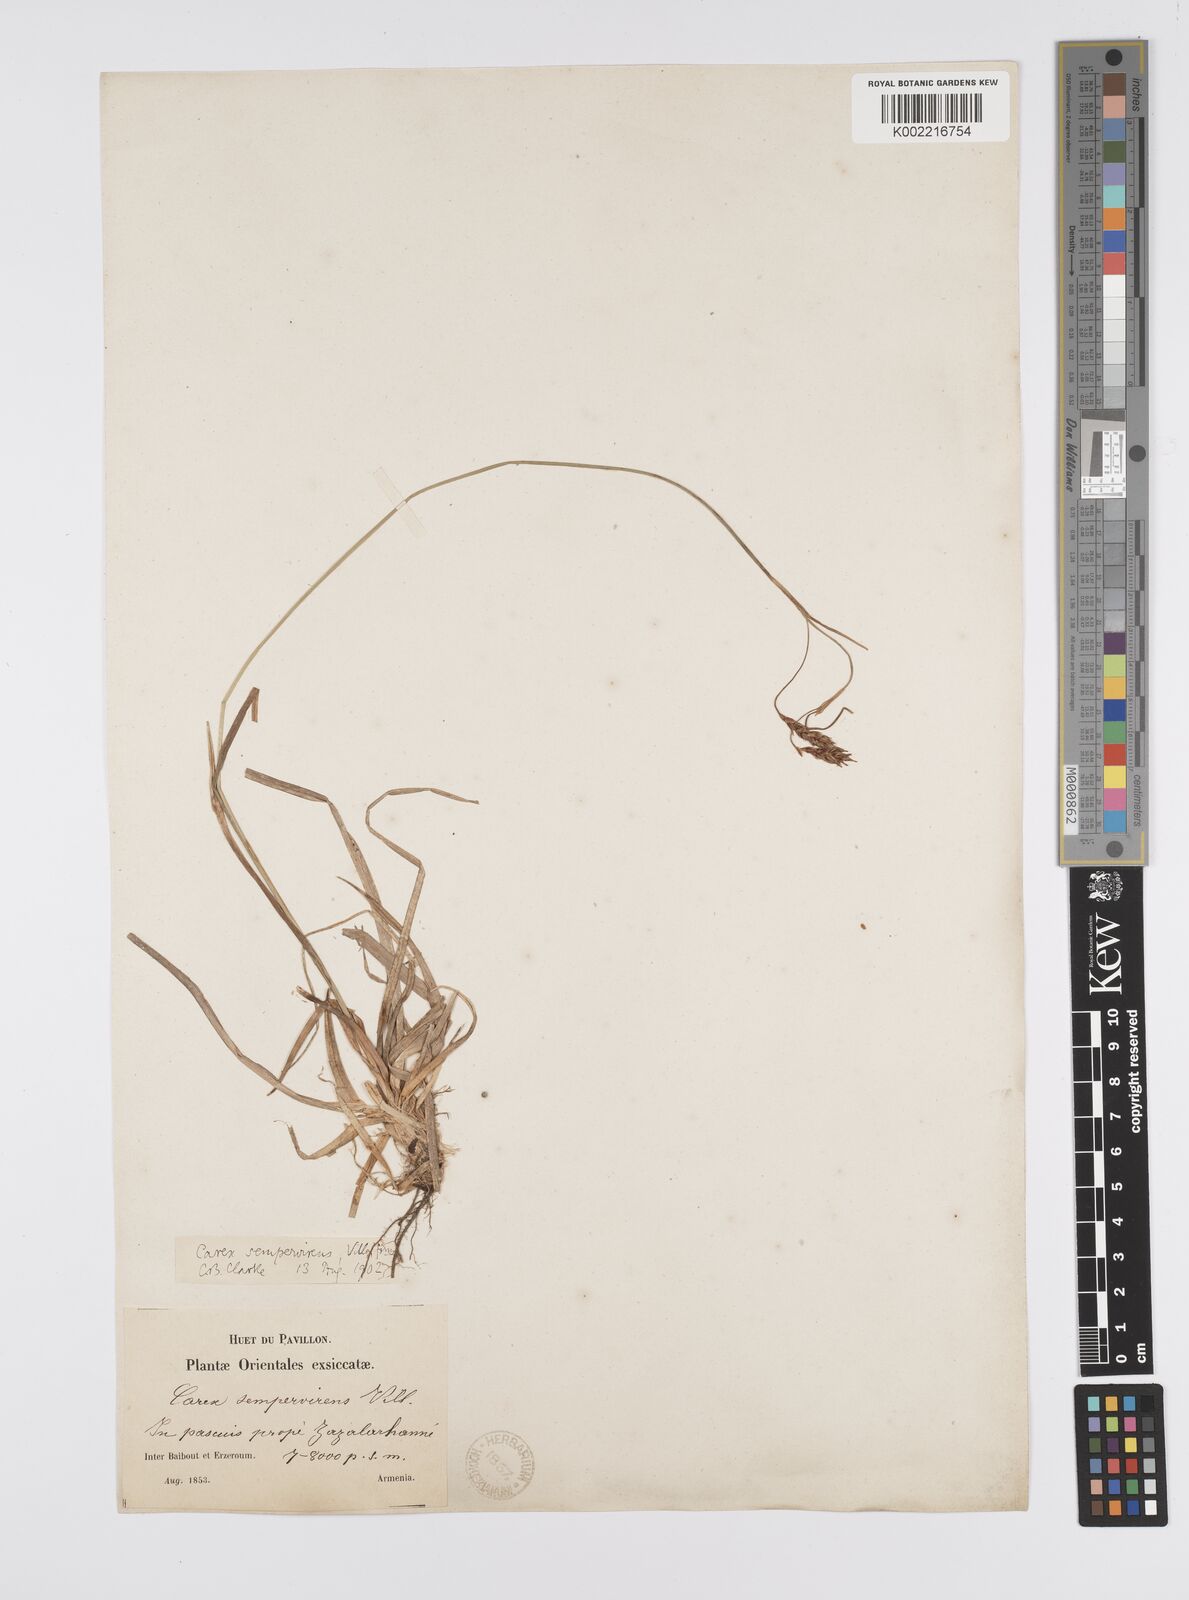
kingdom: Plantae
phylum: Tracheophyta
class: Liliopsida
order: Poales
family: Cyperaceae
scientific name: Cyperaceae
